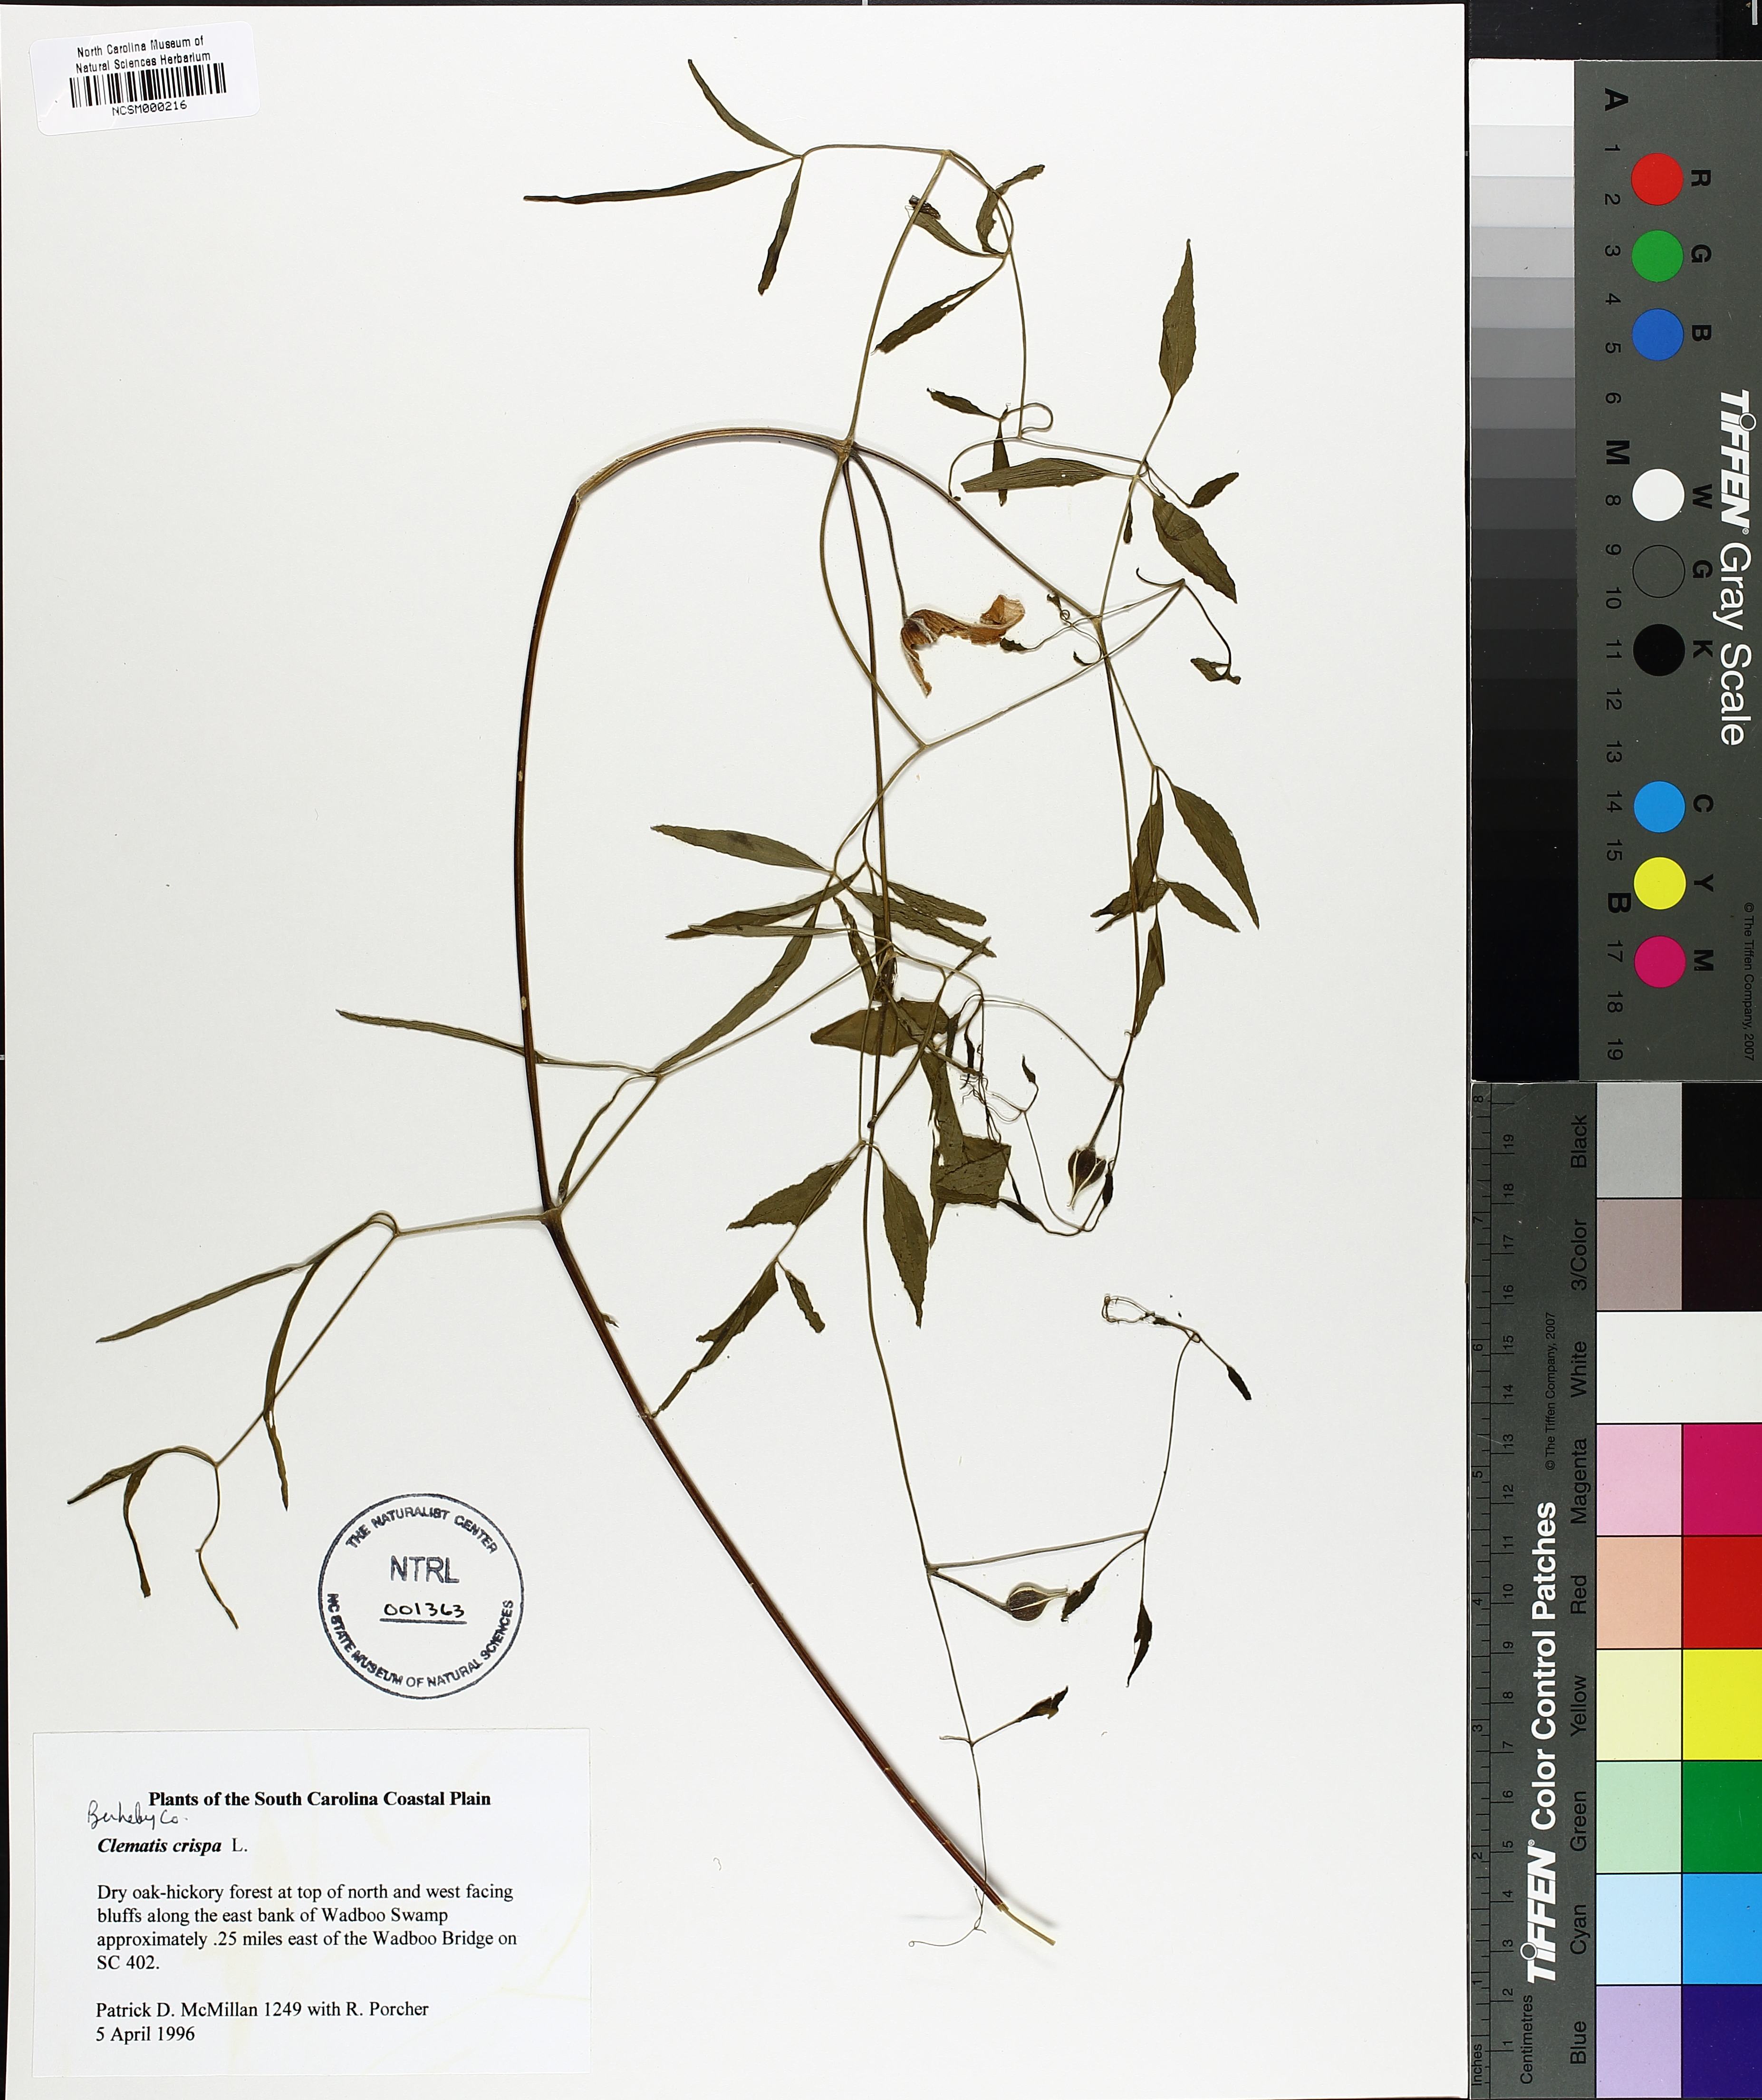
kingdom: Plantae
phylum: Tracheophyta
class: Magnoliopsida
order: Ranunculales
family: Ranunculaceae
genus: Clematis
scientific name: Clematis crispa
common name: Curly clematis
